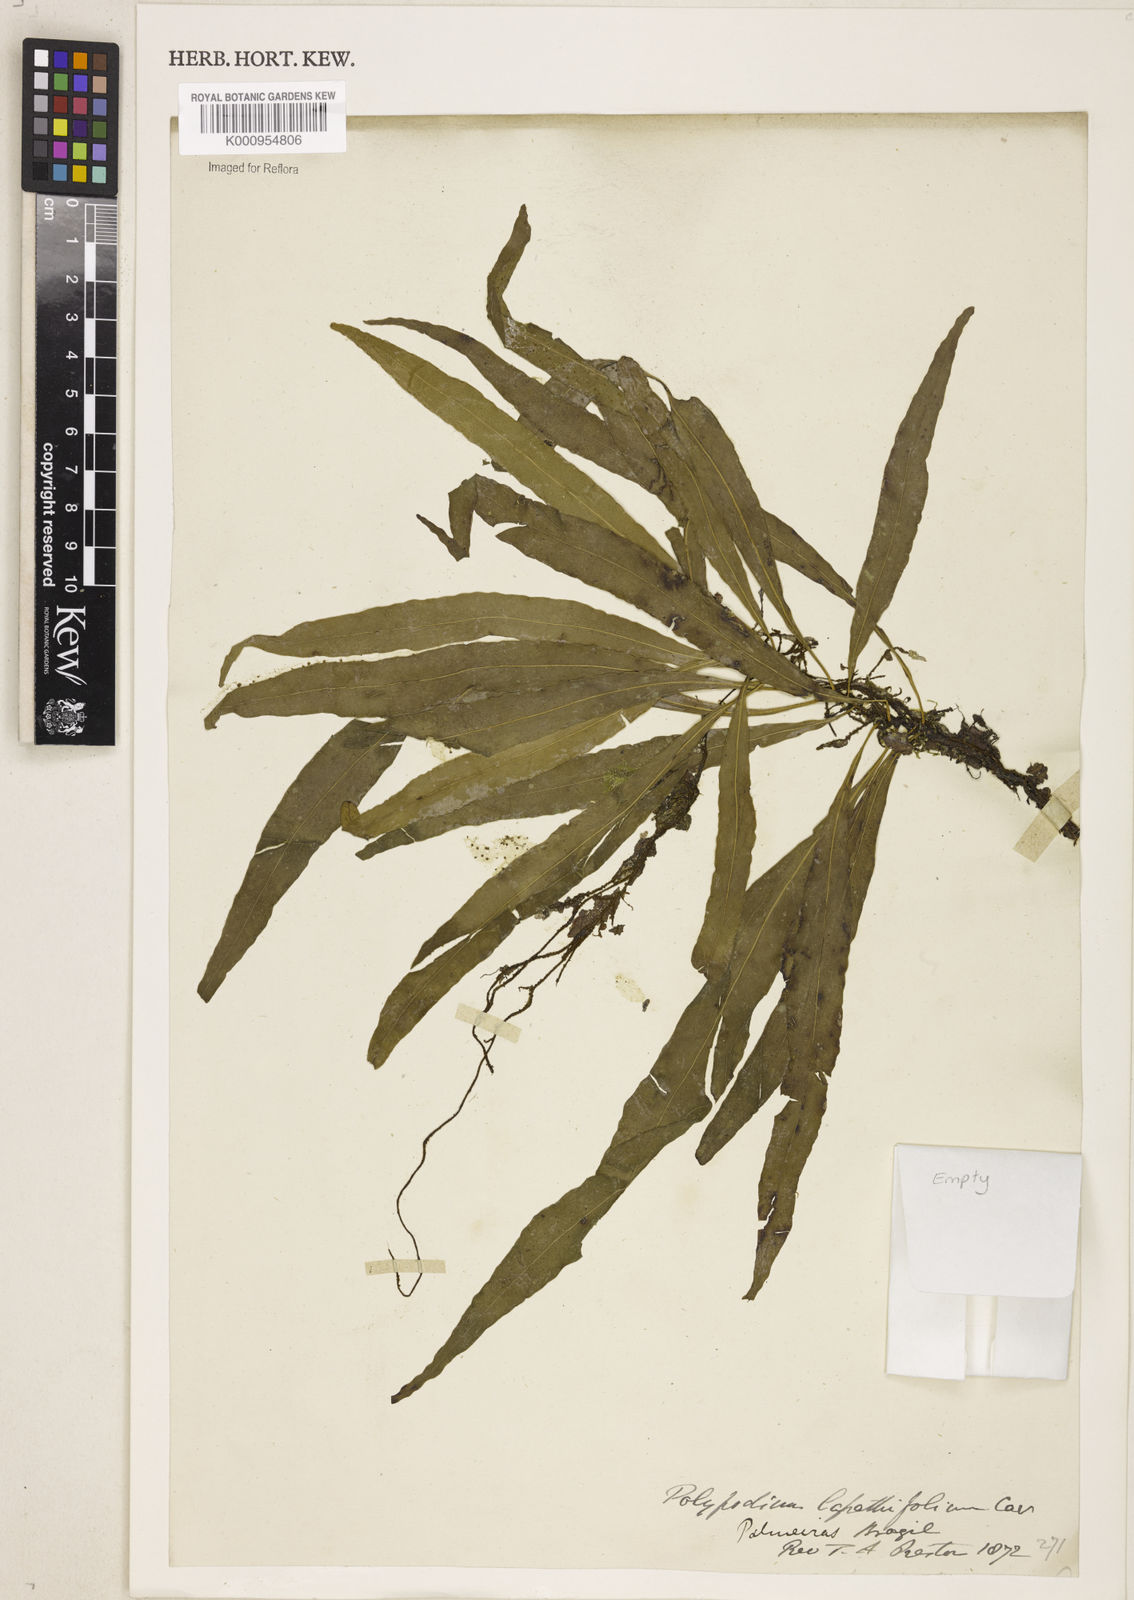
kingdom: Plantae
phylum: Tracheophyta
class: Polypodiopsida
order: Polypodiales
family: Polypodiaceae
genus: Campyloneurum
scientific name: Campyloneurum
